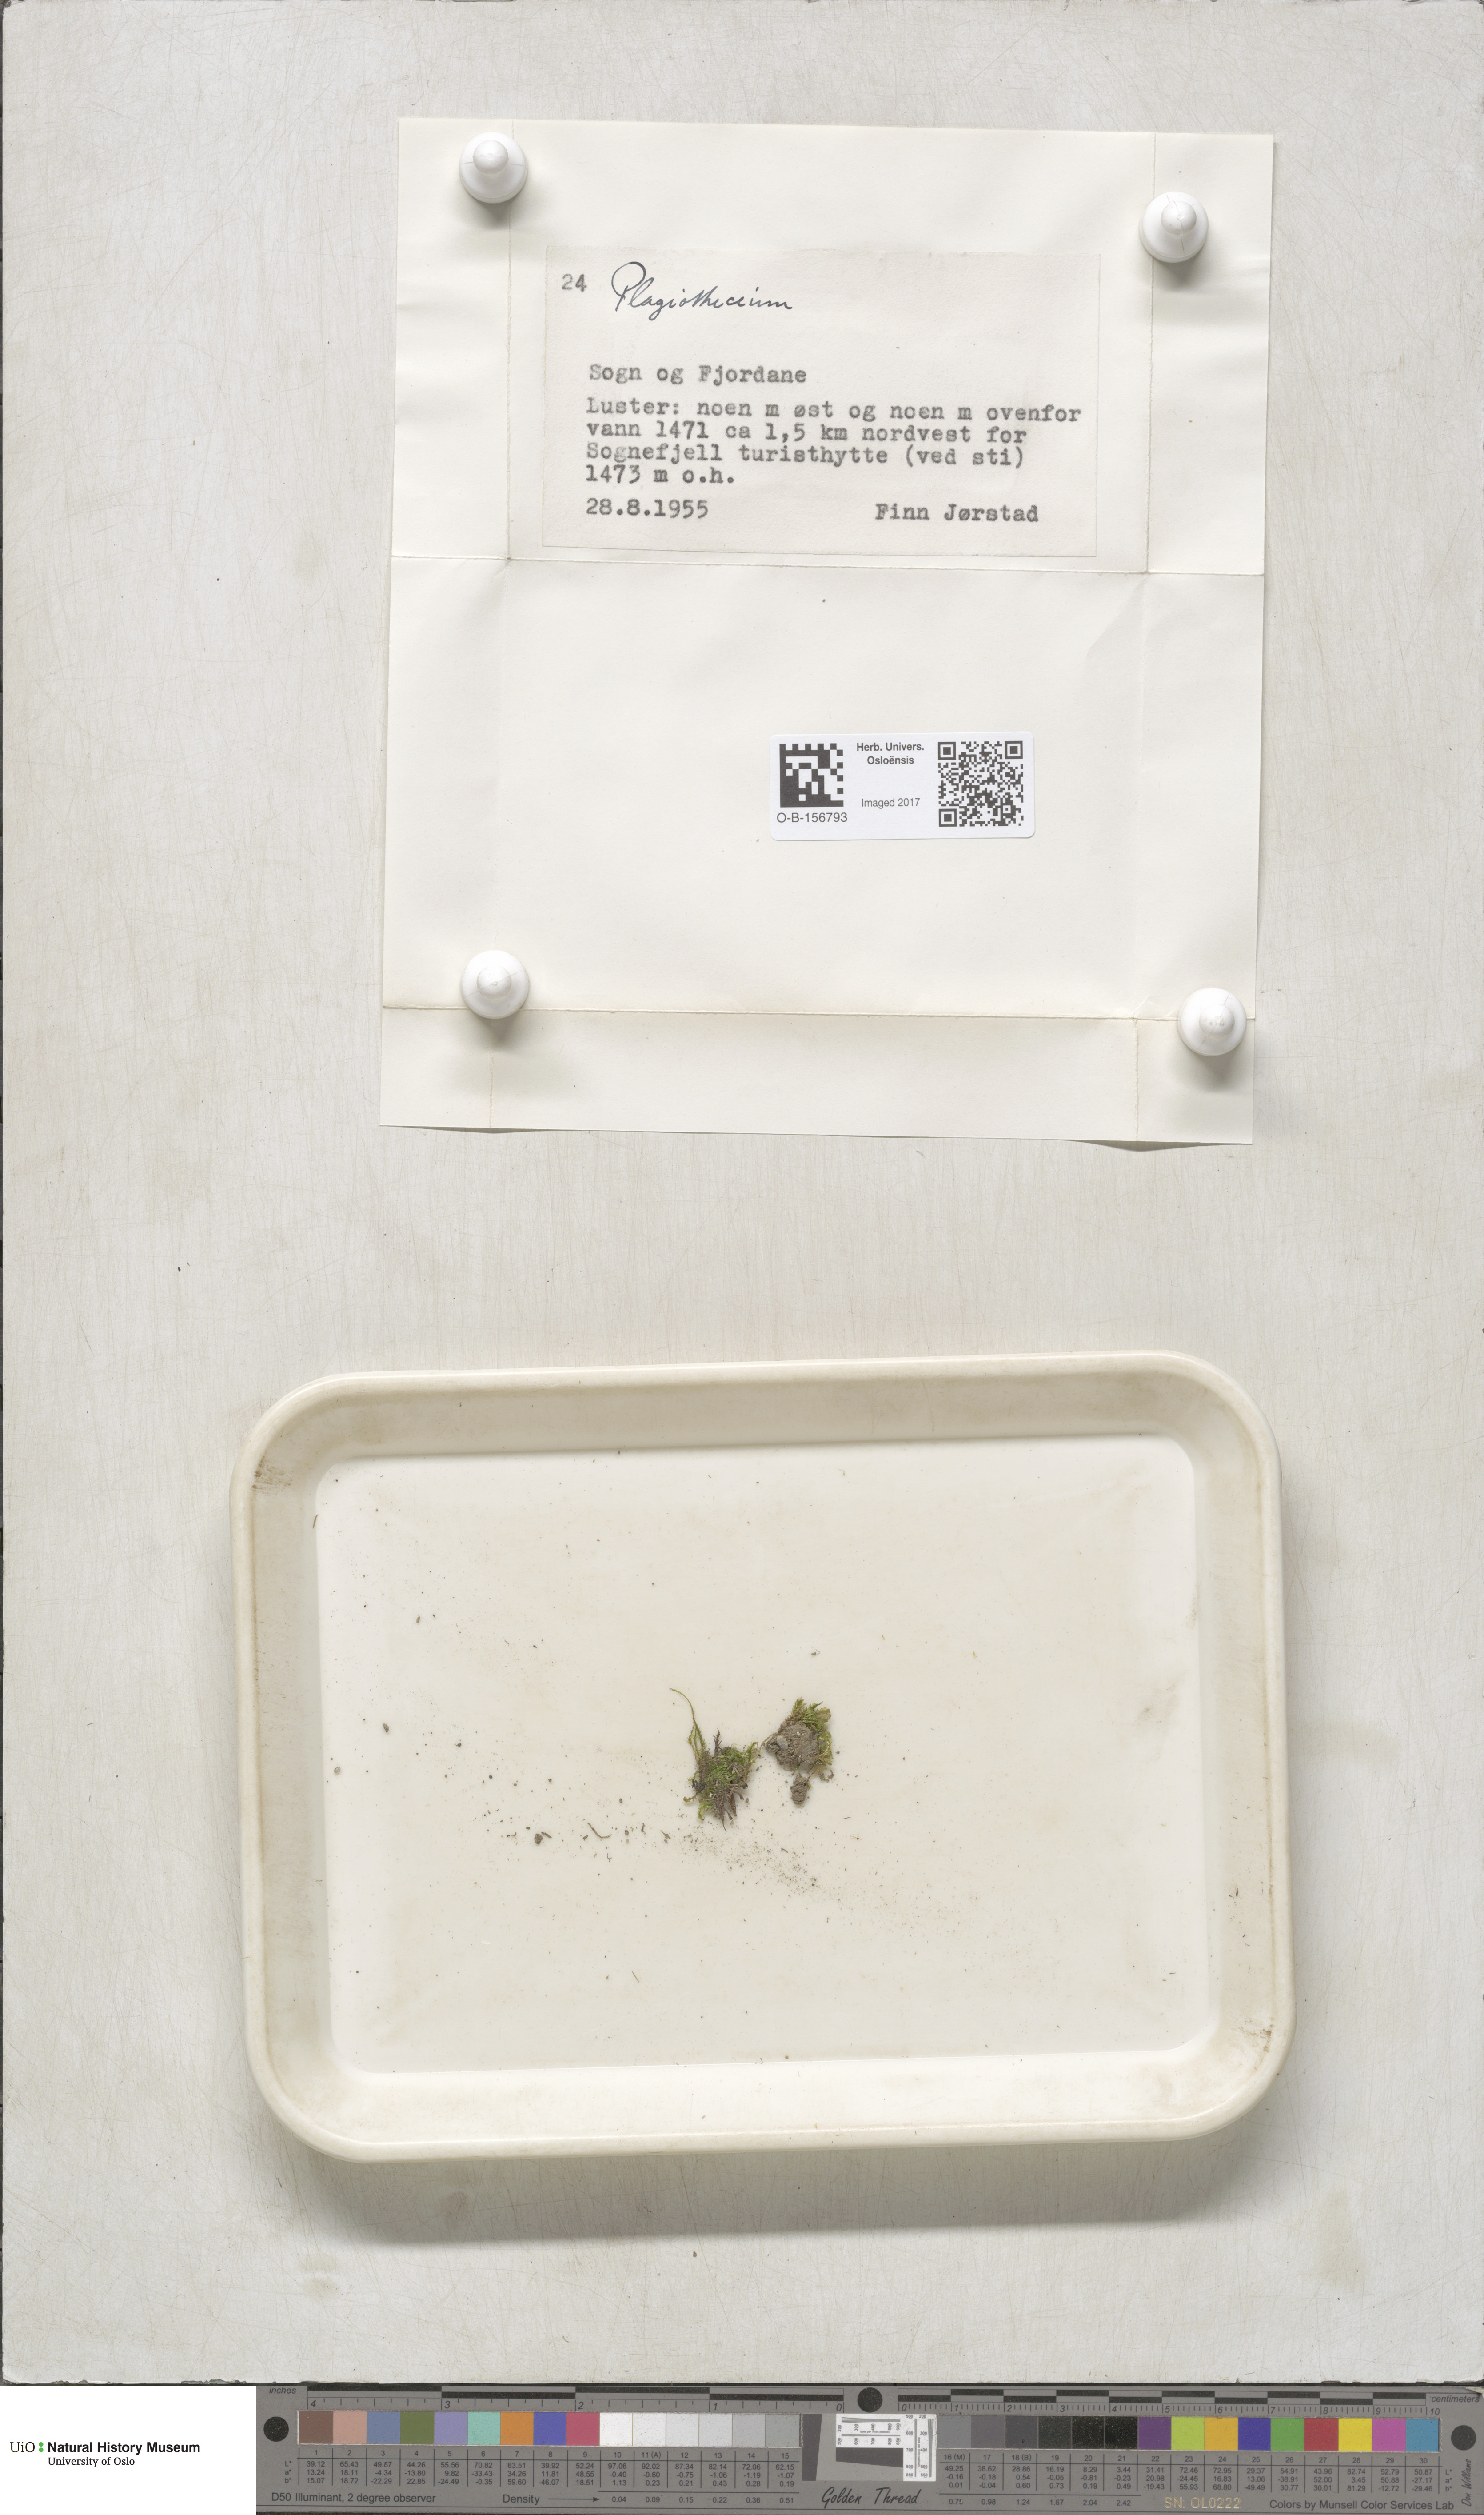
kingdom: Plantae
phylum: Bryophyta
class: Bryopsida
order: Hypnales
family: Plagiotheciaceae
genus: Plagiothecium
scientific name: Plagiothecium
